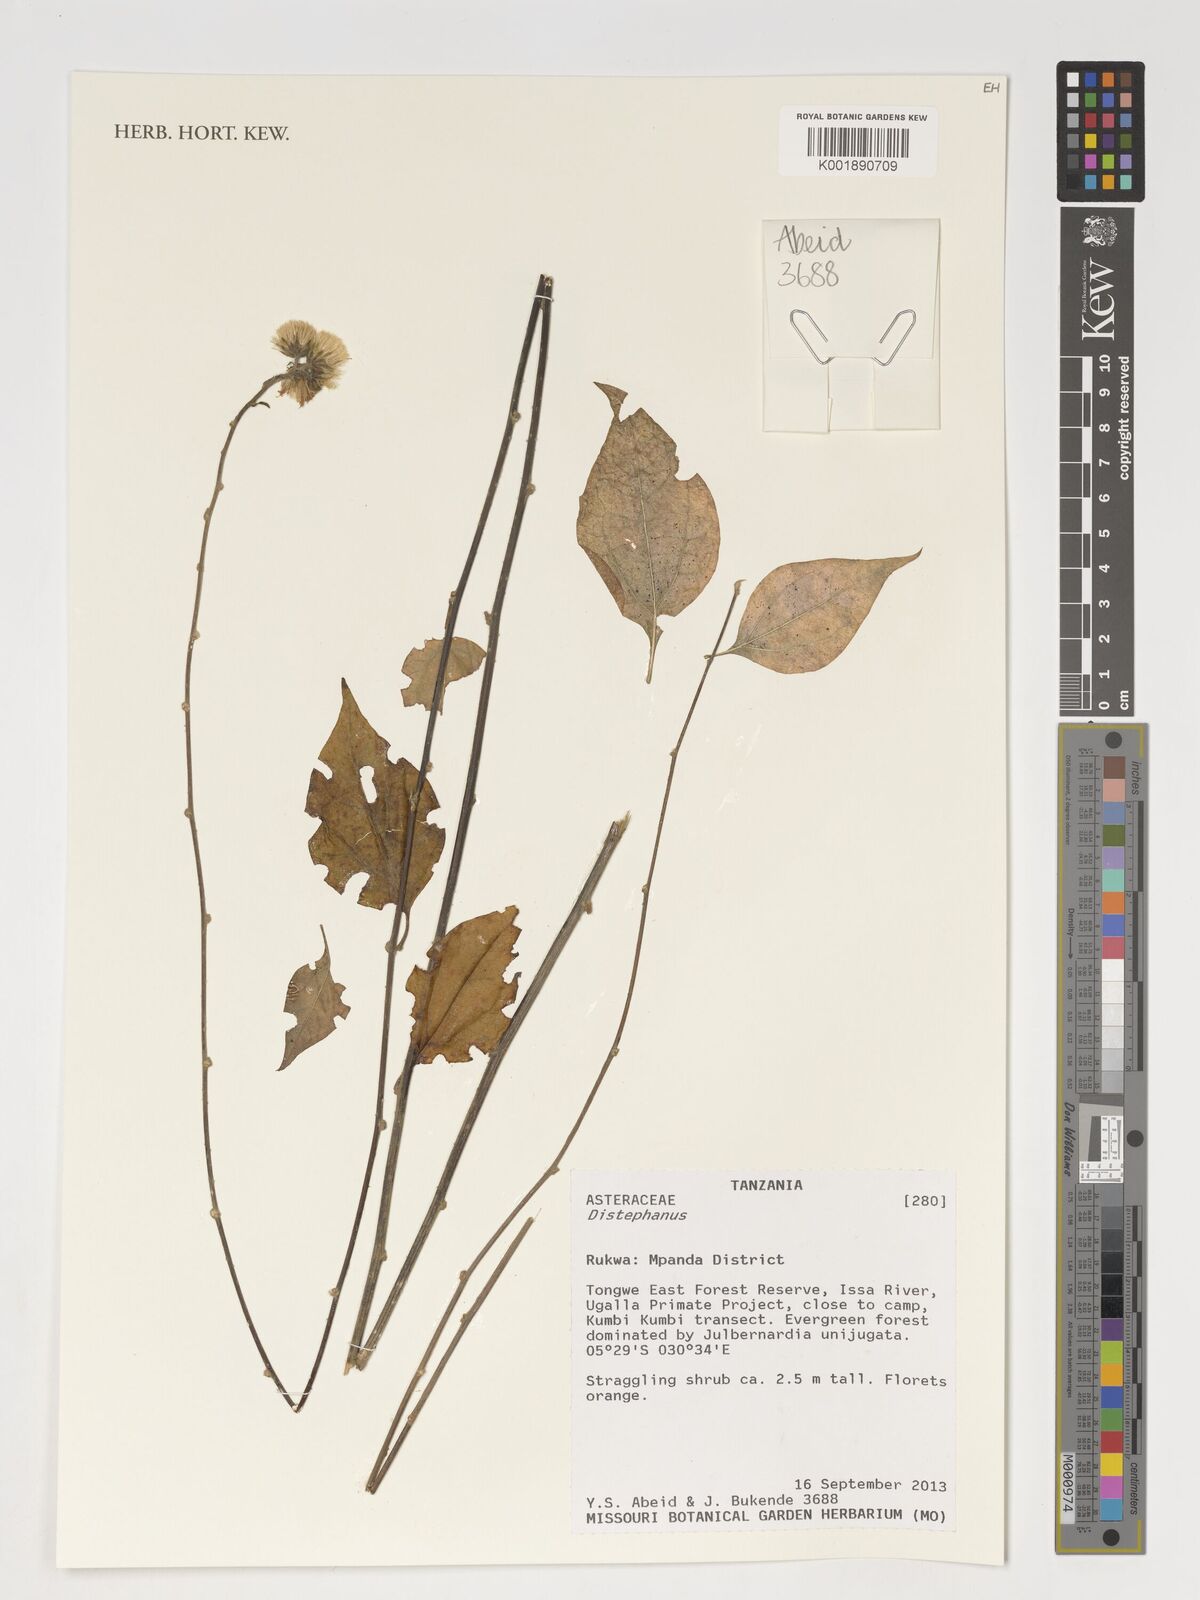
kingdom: Plantae
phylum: Tracheophyta
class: Magnoliopsida
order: Asterales
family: Asteraceae
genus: Distephanus
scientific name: Distephanus
